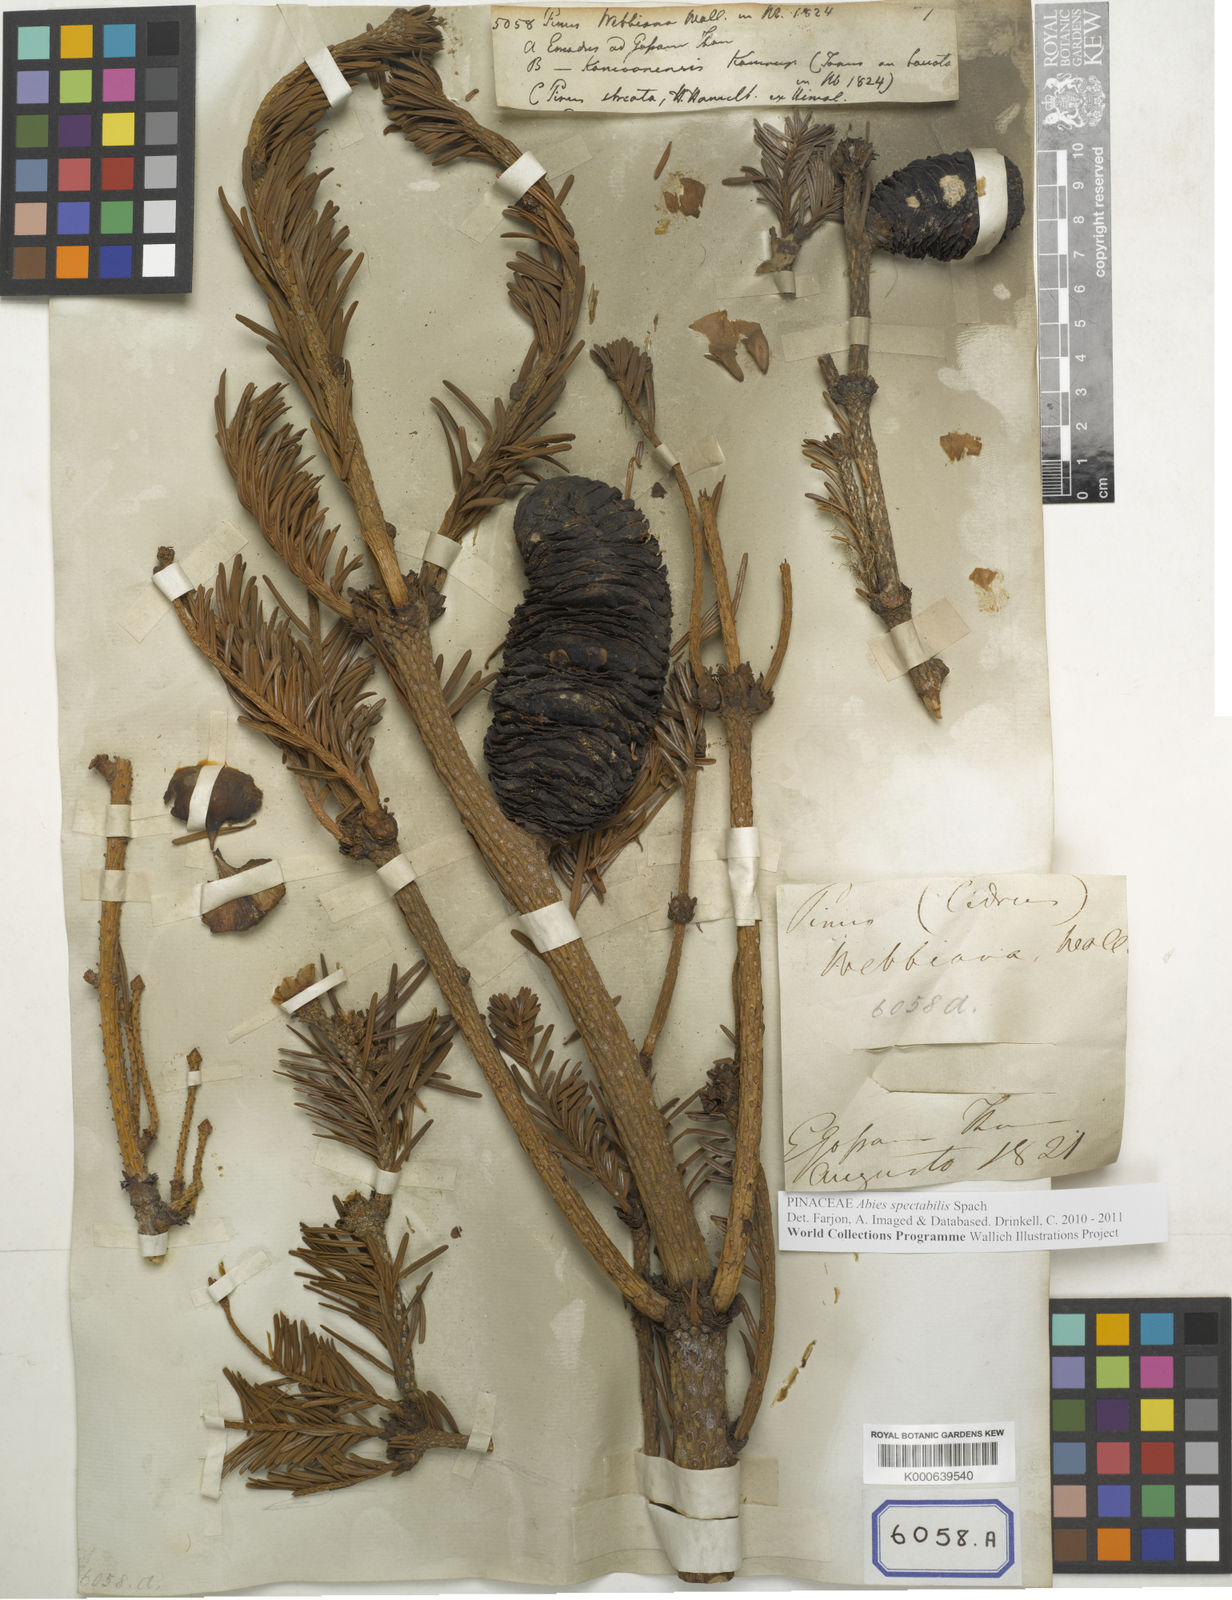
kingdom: Plantae
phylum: Tracheophyta
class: Pinopsida
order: Pinales
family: Pinaceae
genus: Pinus
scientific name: Pinus
